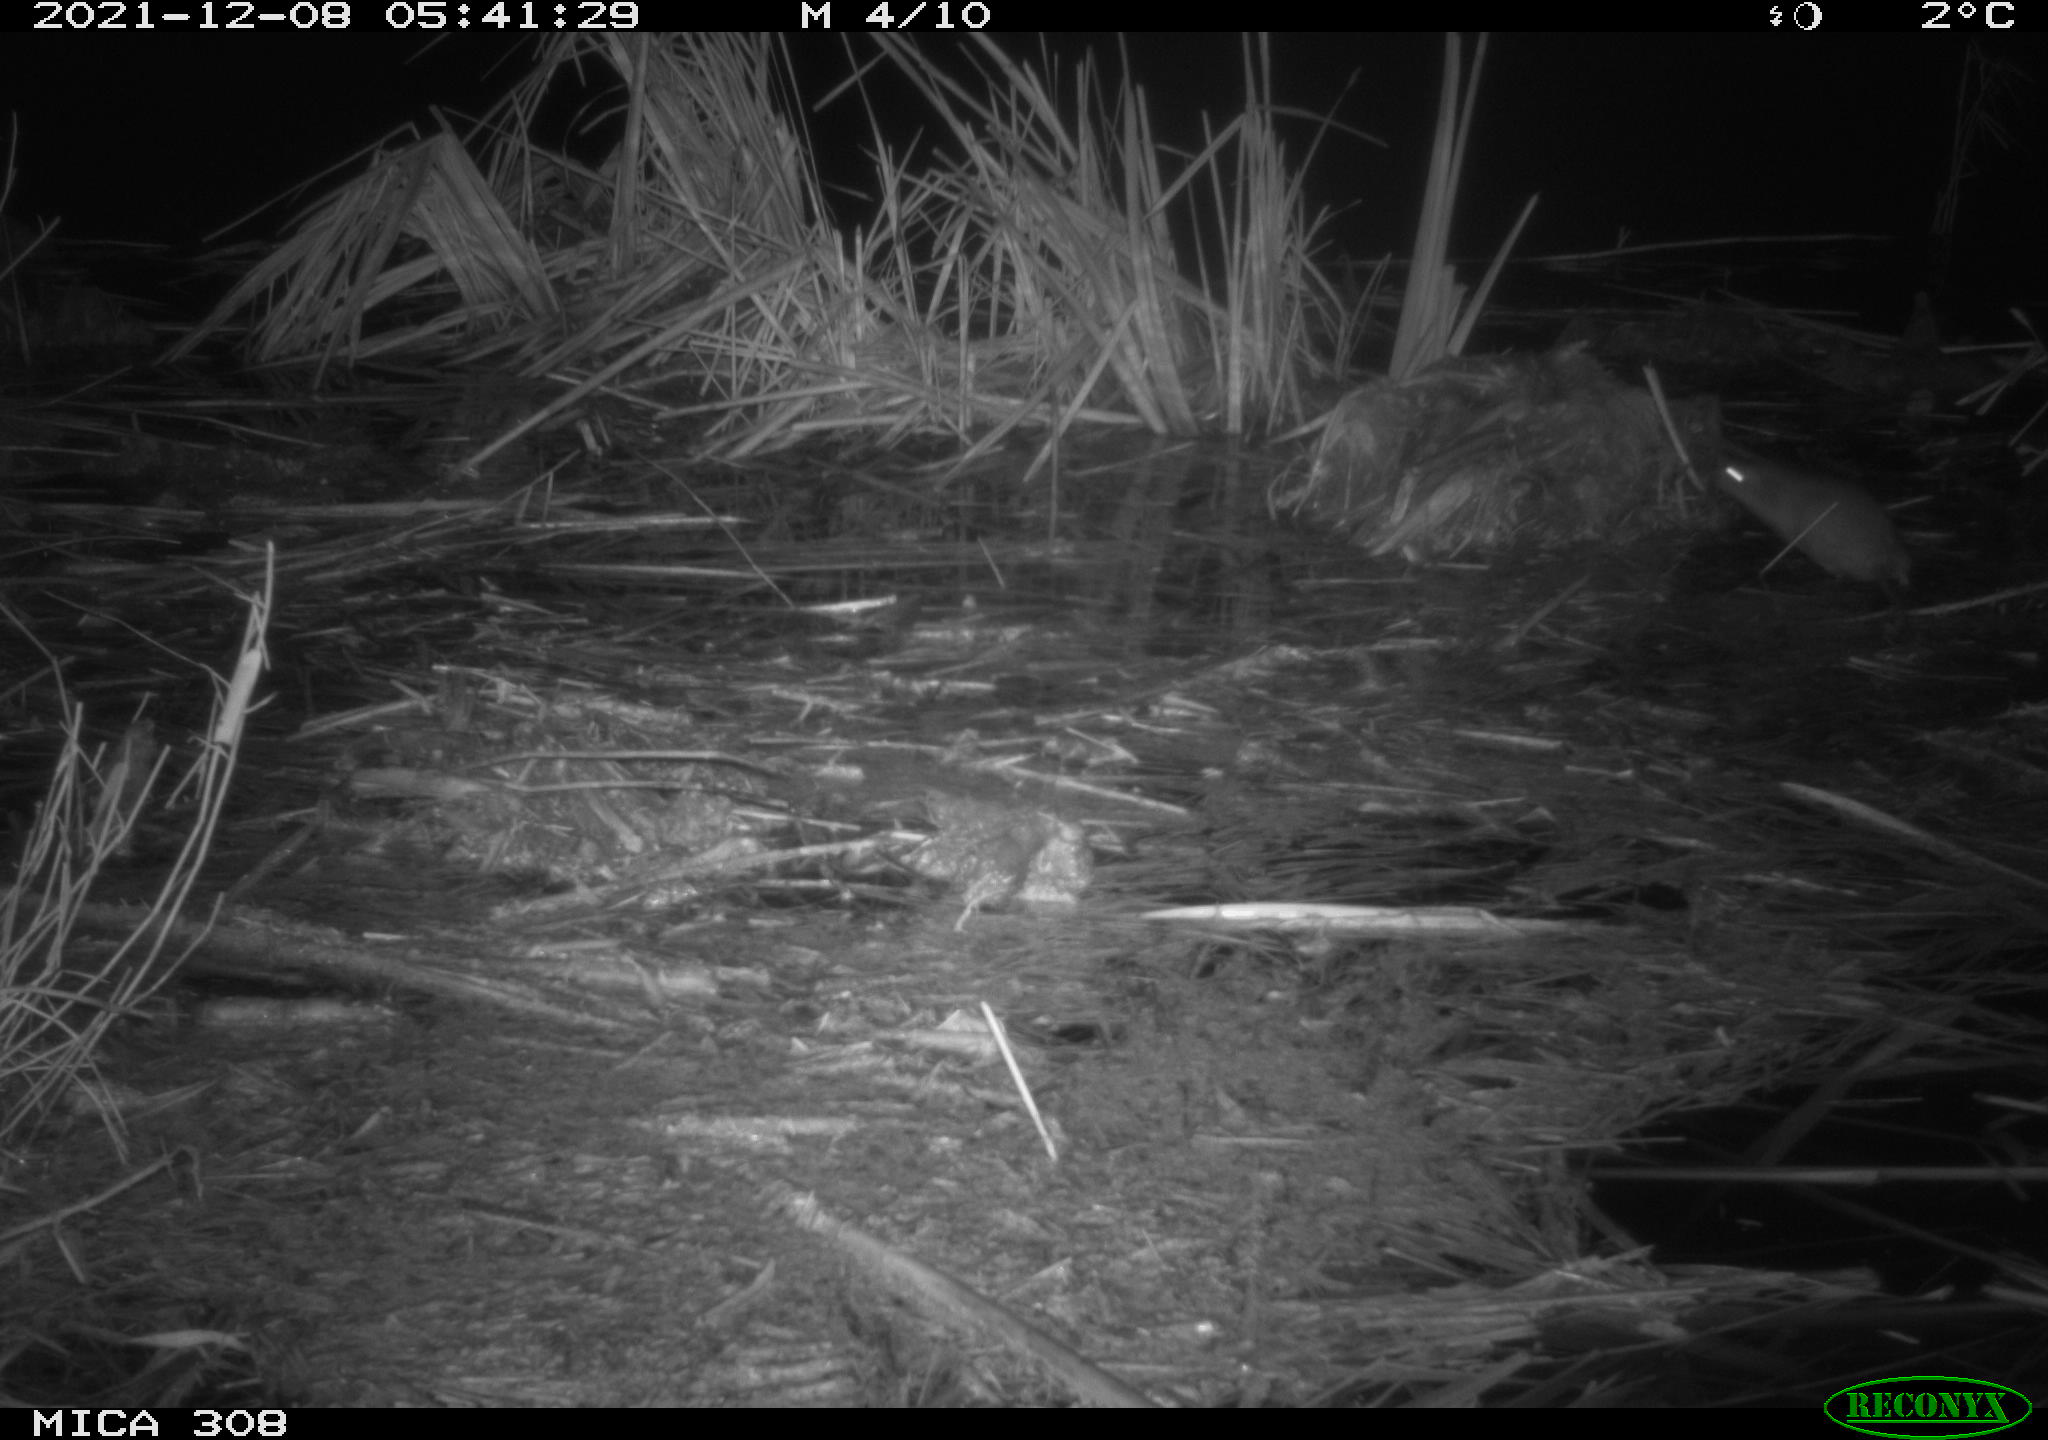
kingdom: Animalia
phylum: Chordata
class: Mammalia
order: Rodentia
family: Muridae
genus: Rattus
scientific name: Rattus norvegicus
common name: Brown rat
